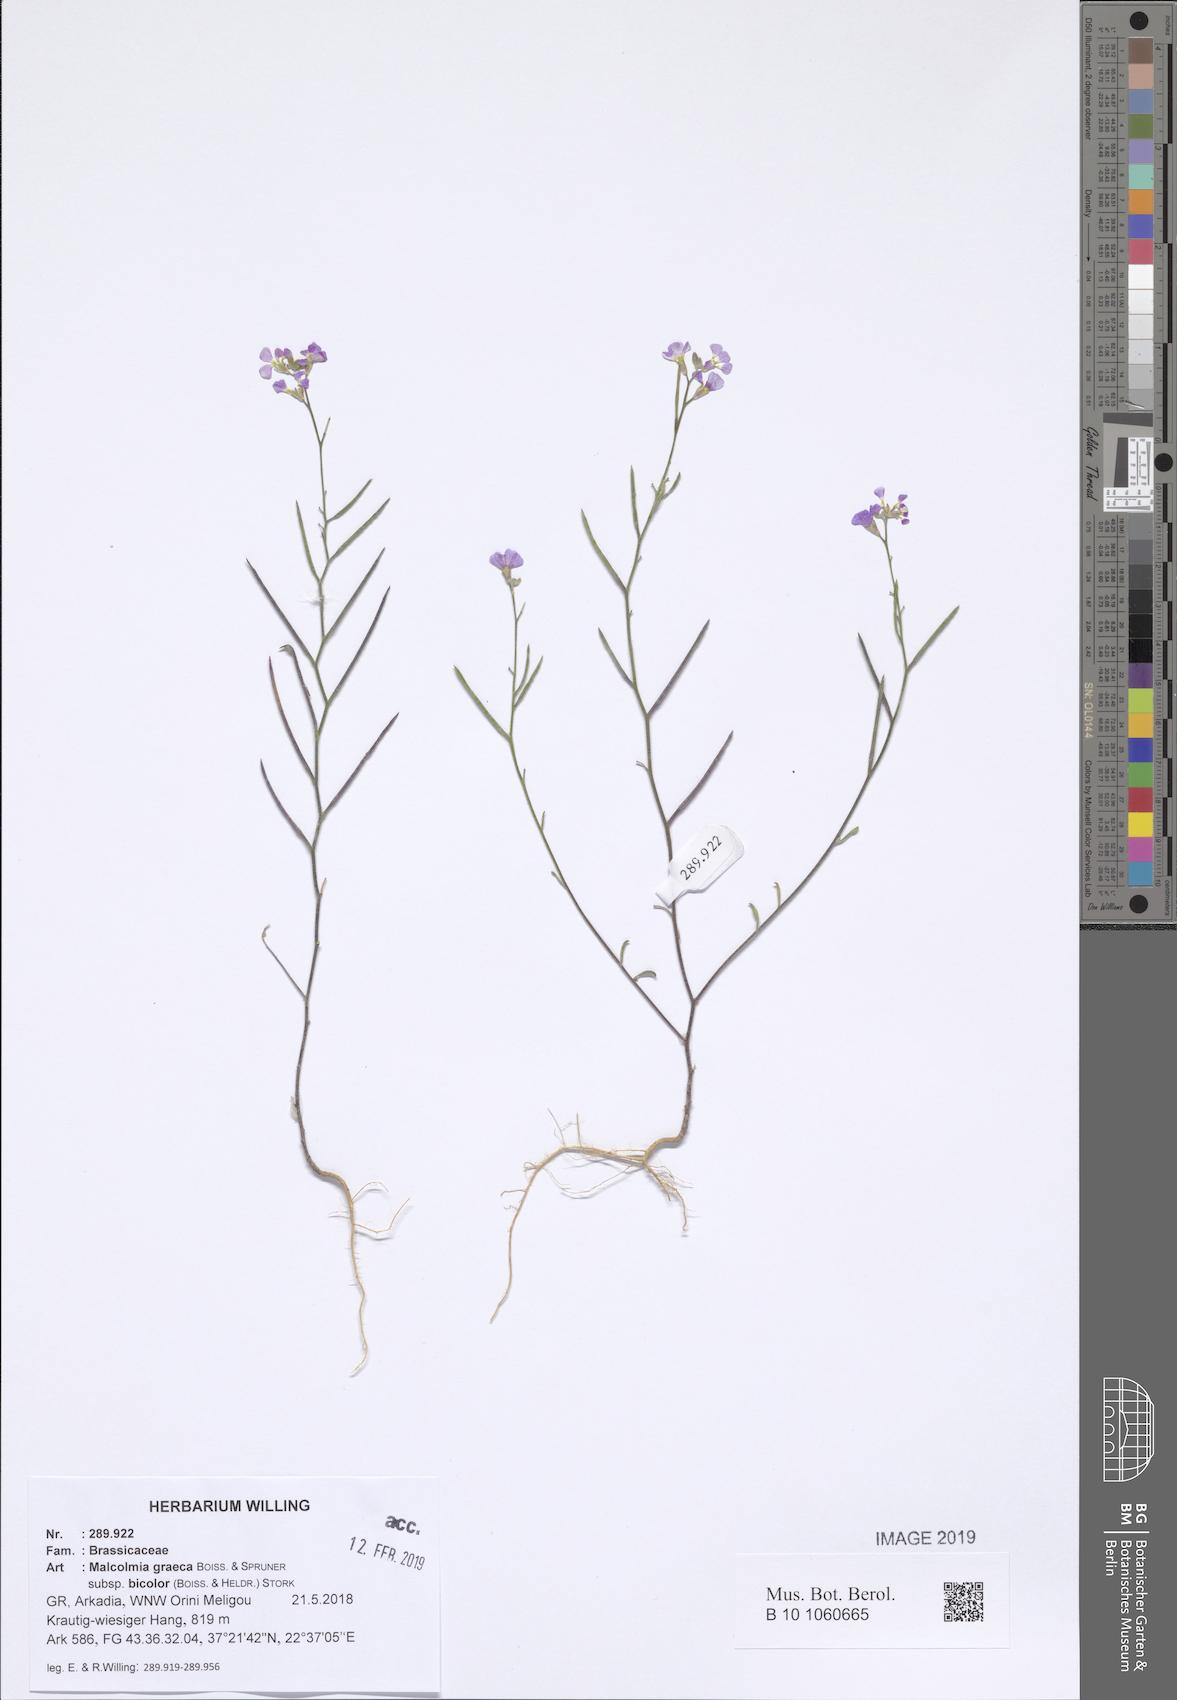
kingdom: Plantae
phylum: Tracheophyta
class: Magnoliopsida
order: Brassicales
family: Brassicaceae
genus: Malcolmia
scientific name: Malcolmia graeca
